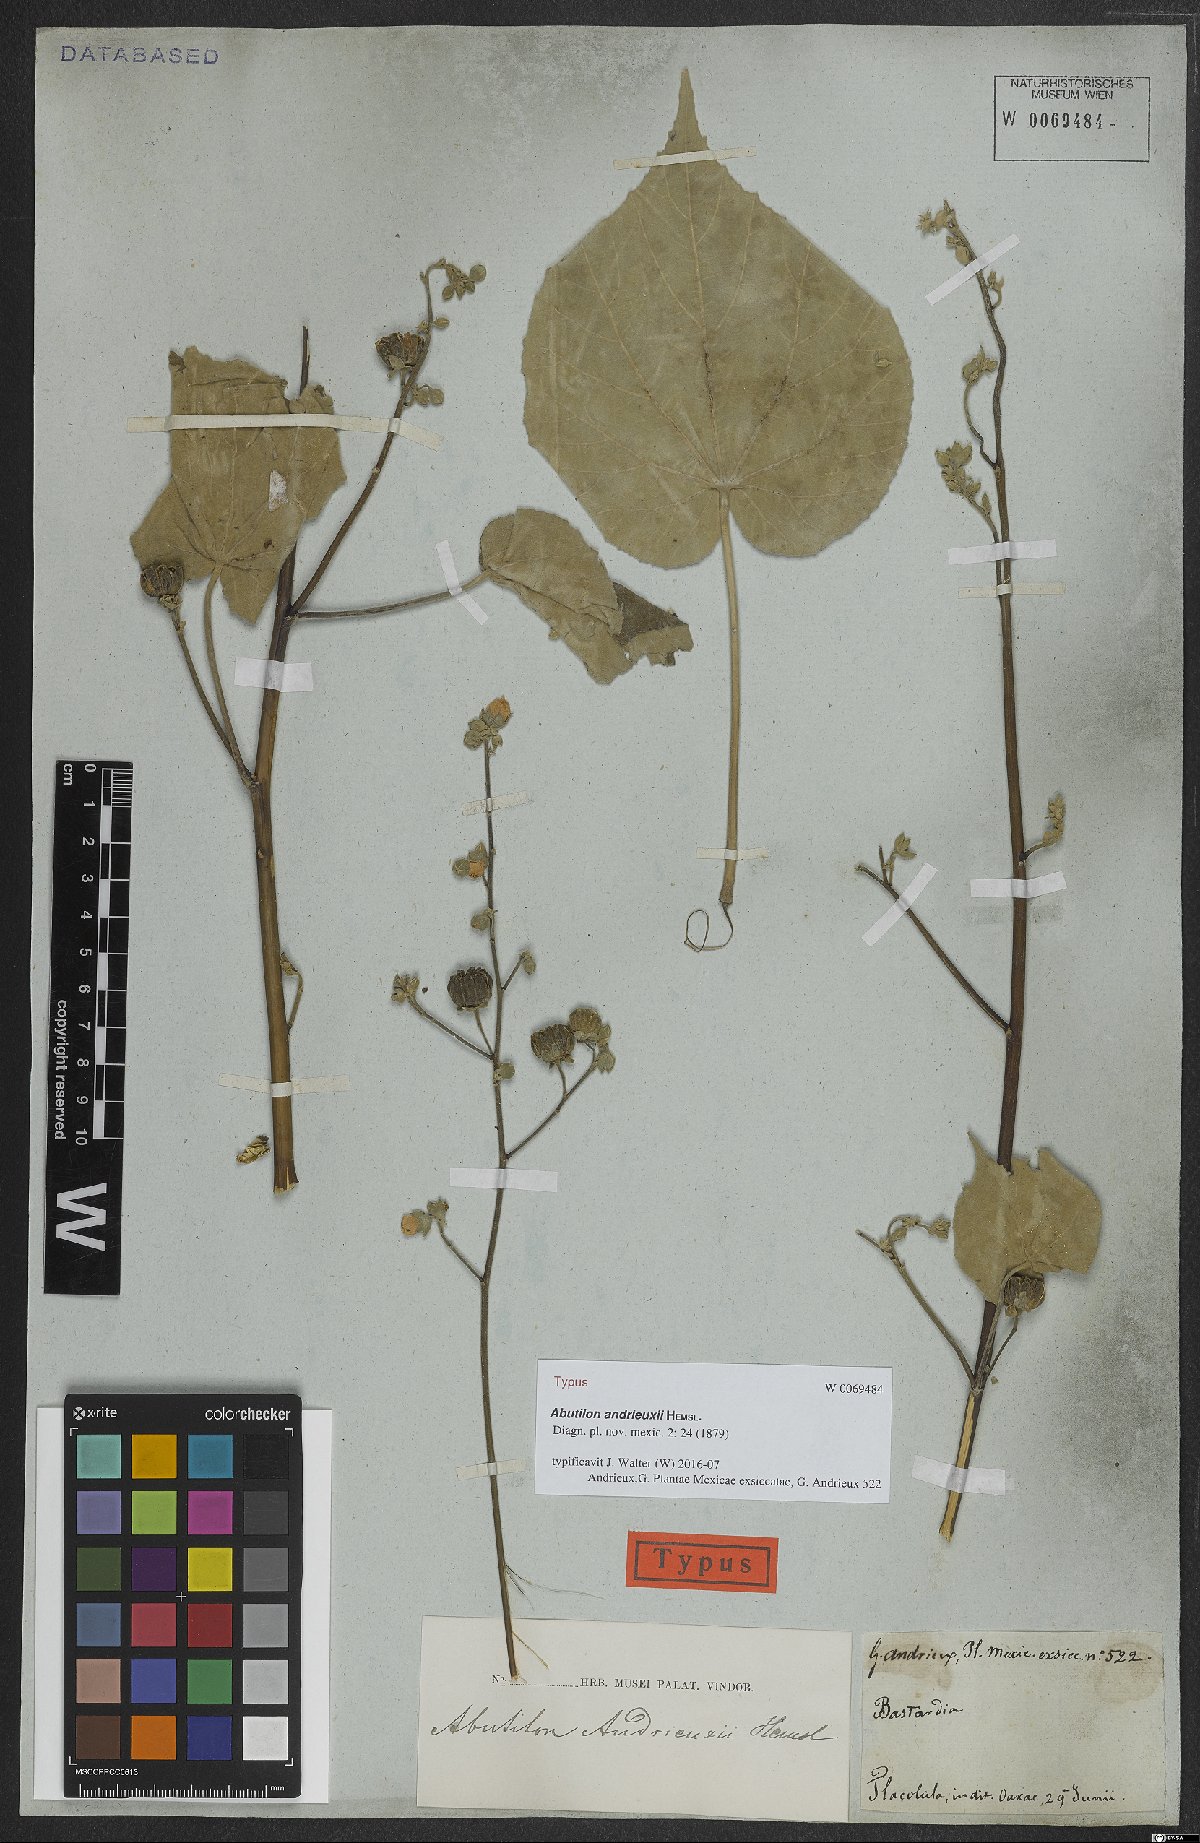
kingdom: Plantae
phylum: Tracheophyta
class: Magnoliopsida
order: Malvales
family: Malvaceae
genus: Abutilon
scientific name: Abutilon andrieuxii
